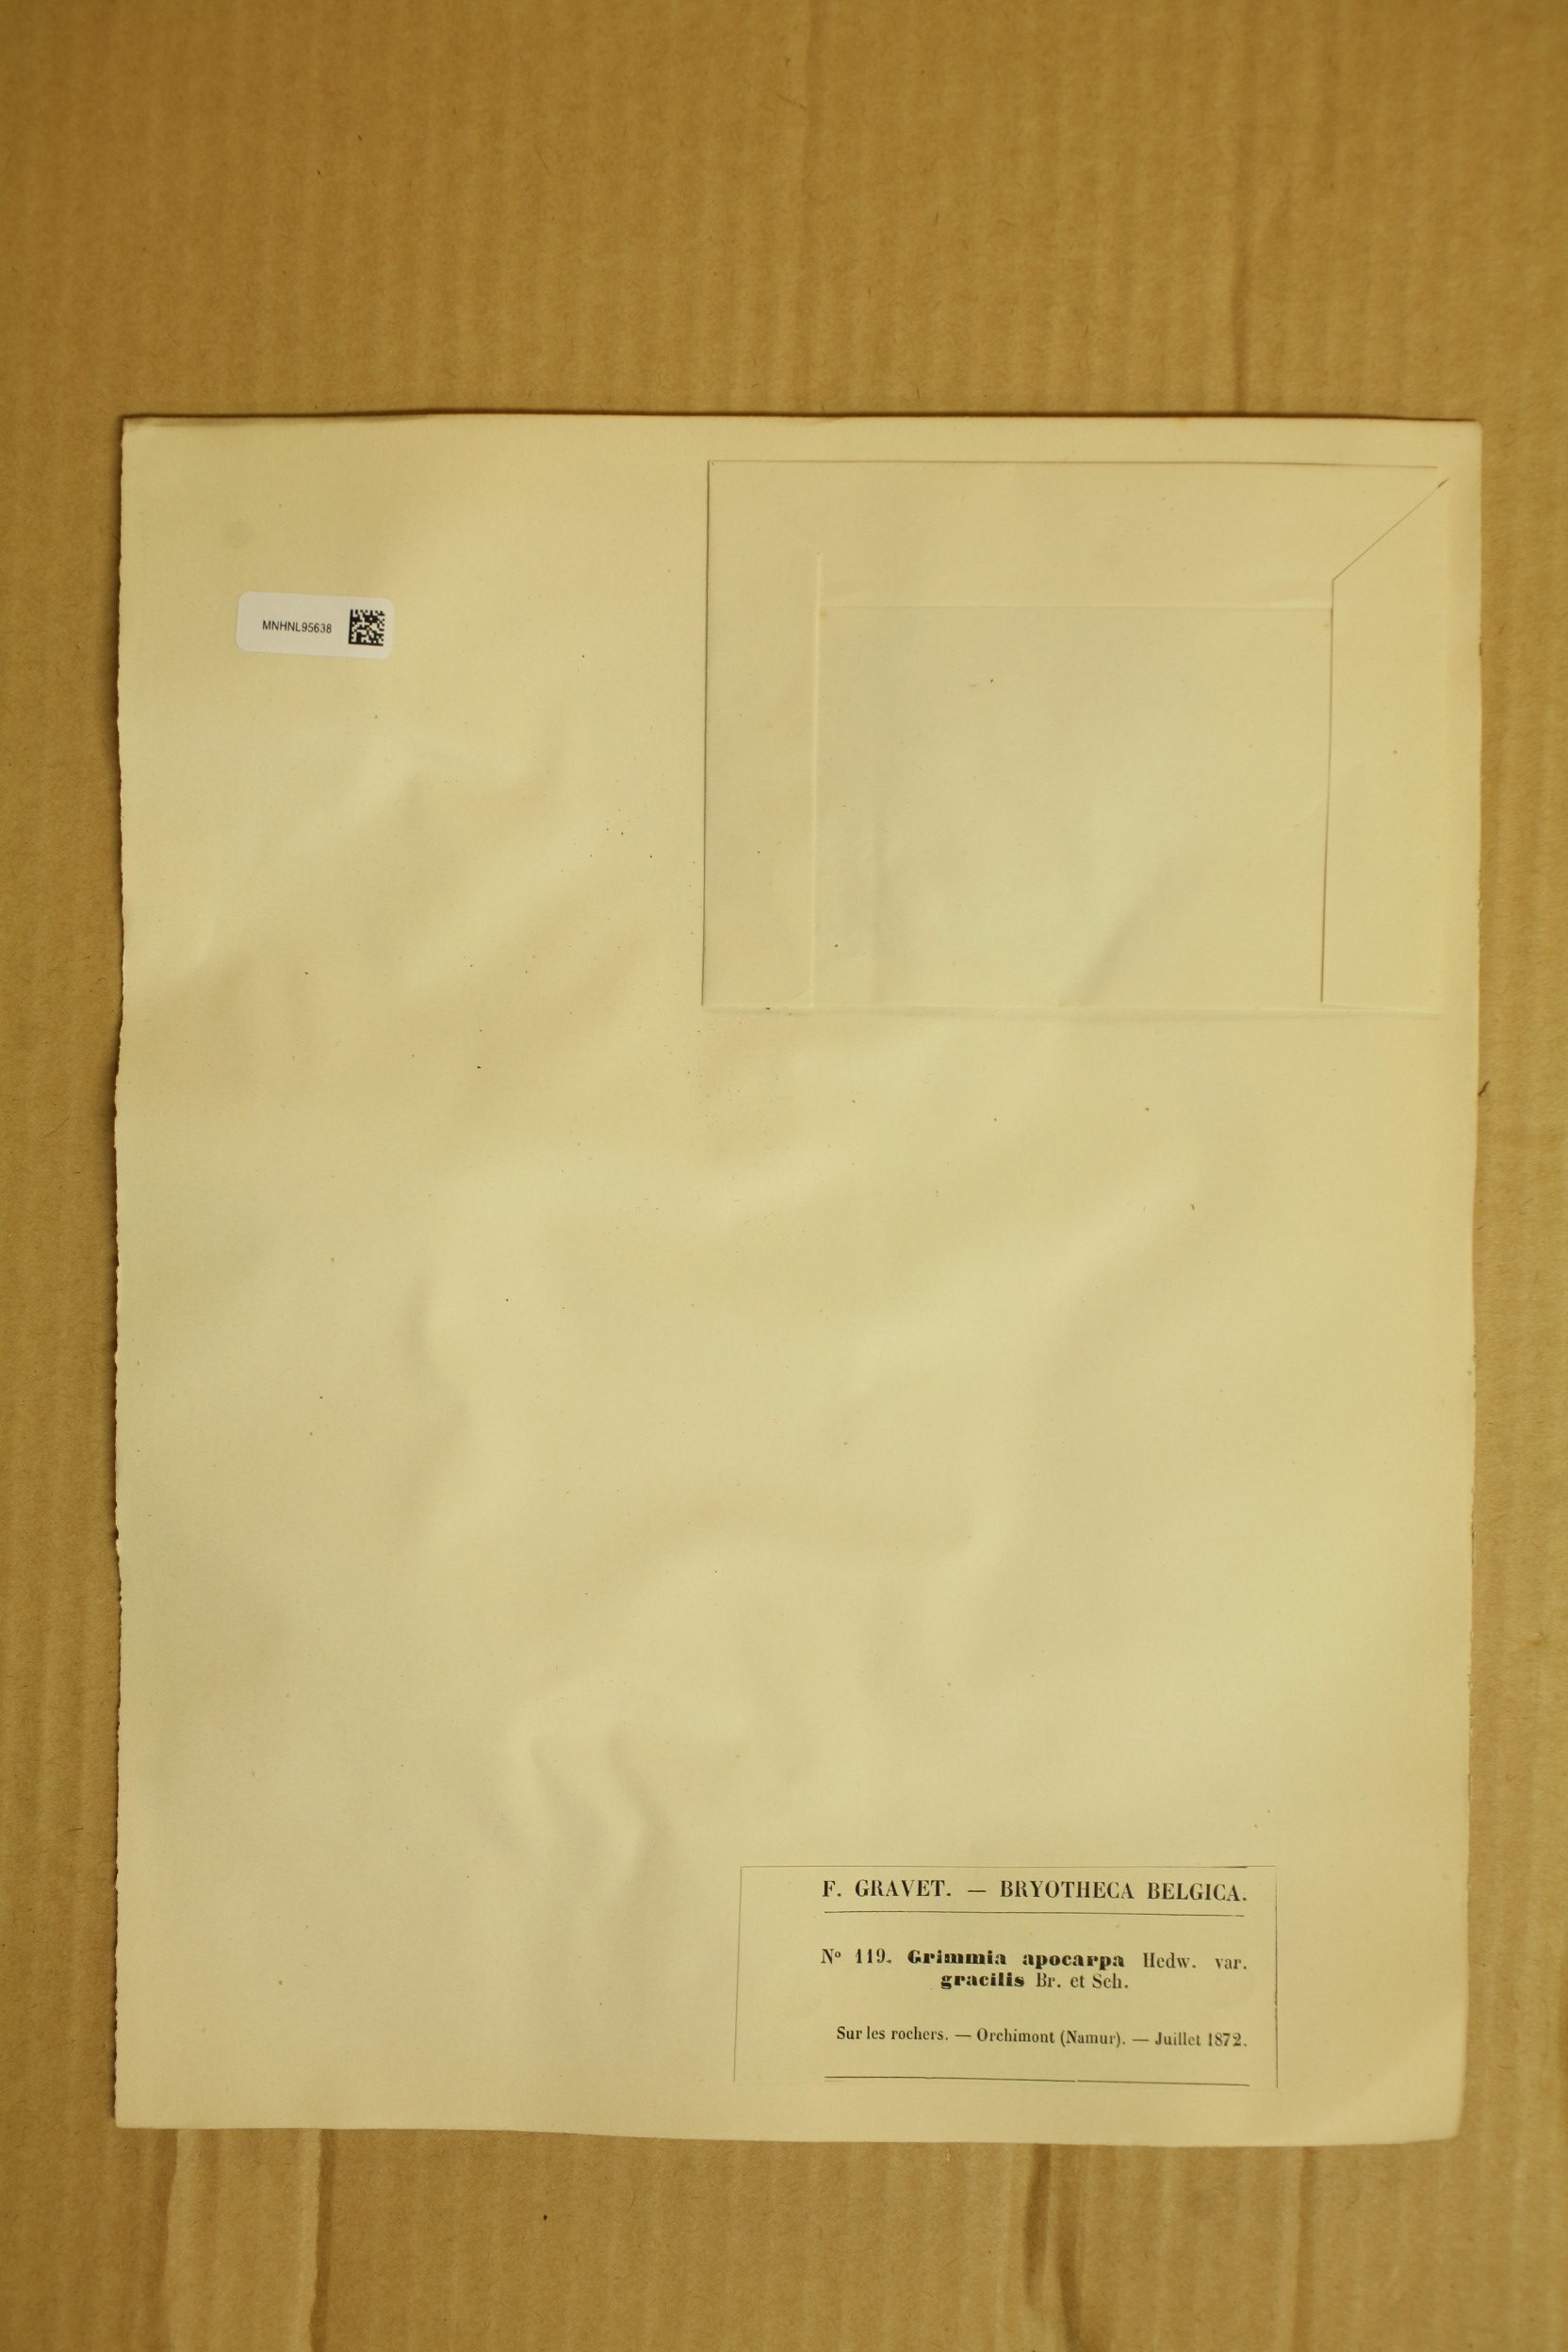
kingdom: Plantae
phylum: Bryophyta
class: Bryopsida
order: Grimmiales
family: Grimmiaceae
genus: Schistidium
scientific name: Schistidium apocarpum
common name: Radiate bloom moss
